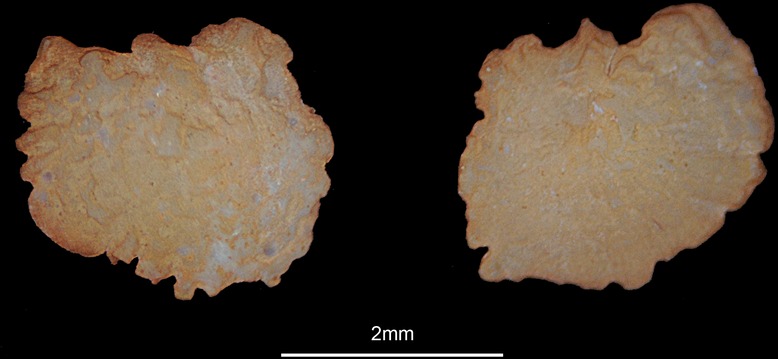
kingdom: Animalia
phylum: Chordata
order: Cypriniformes
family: Cyprinidae
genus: Vimba
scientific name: Vimba vimba
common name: Vimba
